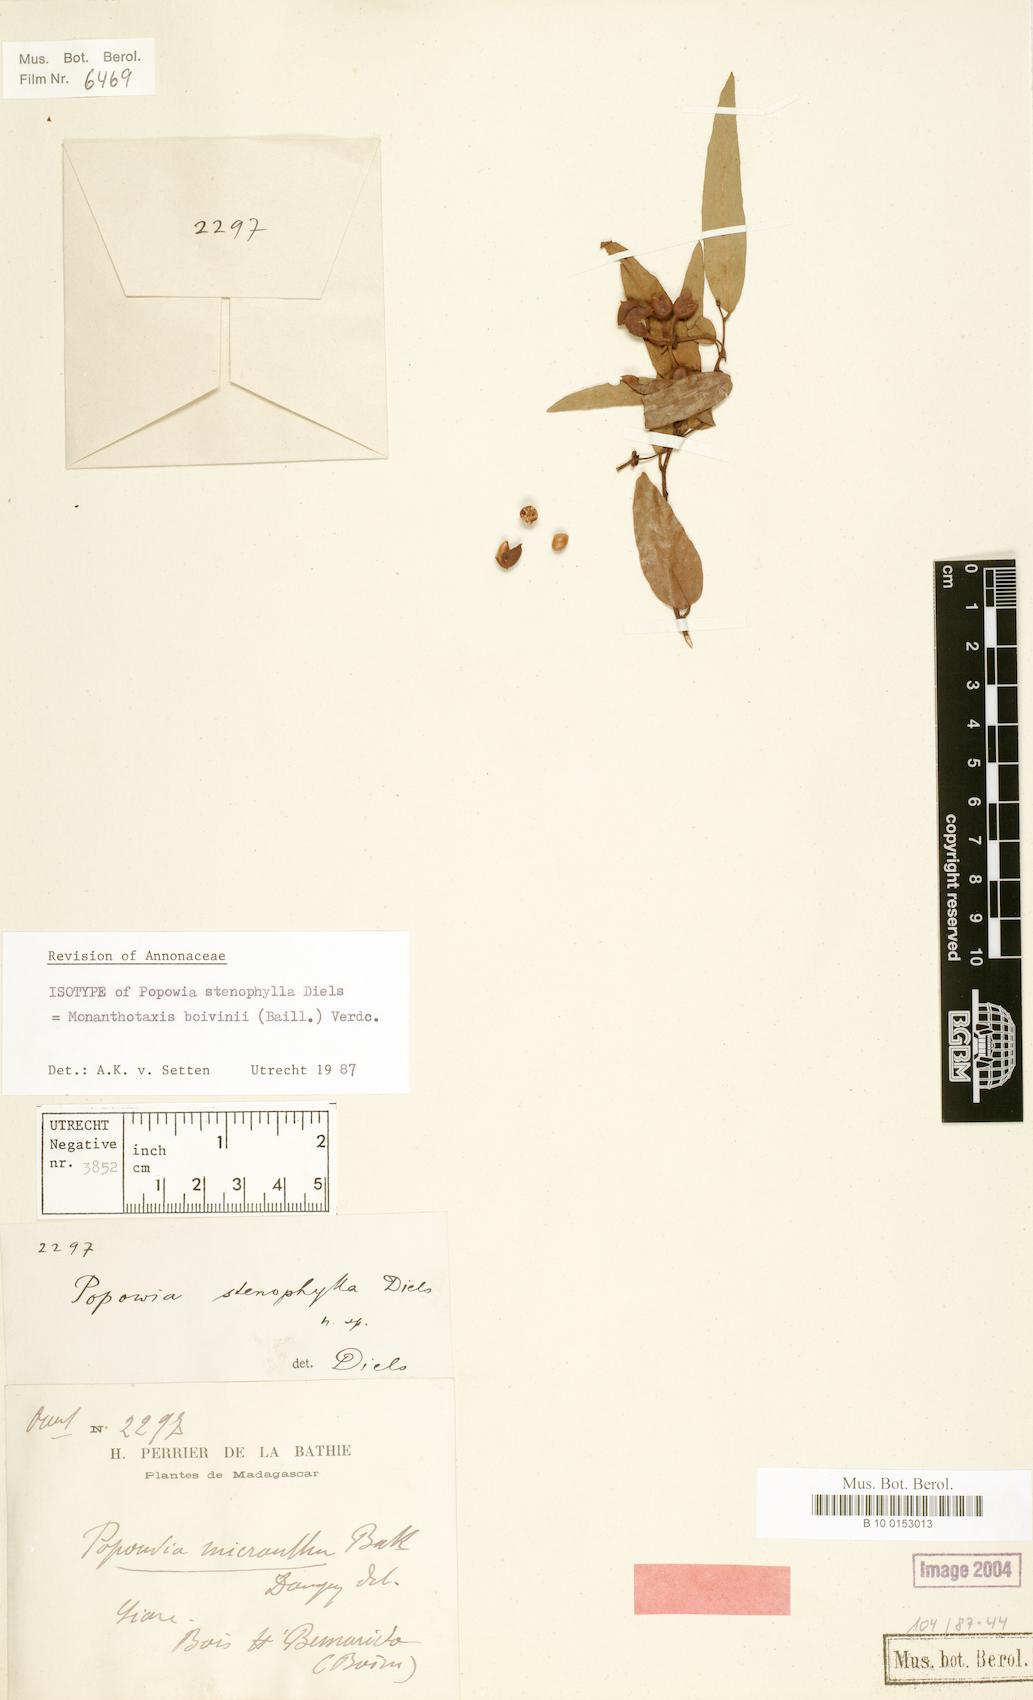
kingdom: Plantae
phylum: Tracheophyta
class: Magnoliopsida
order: Magnoliales
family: Annonaceae
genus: Monanthotaxis
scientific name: Monanthotaxis boivinii
